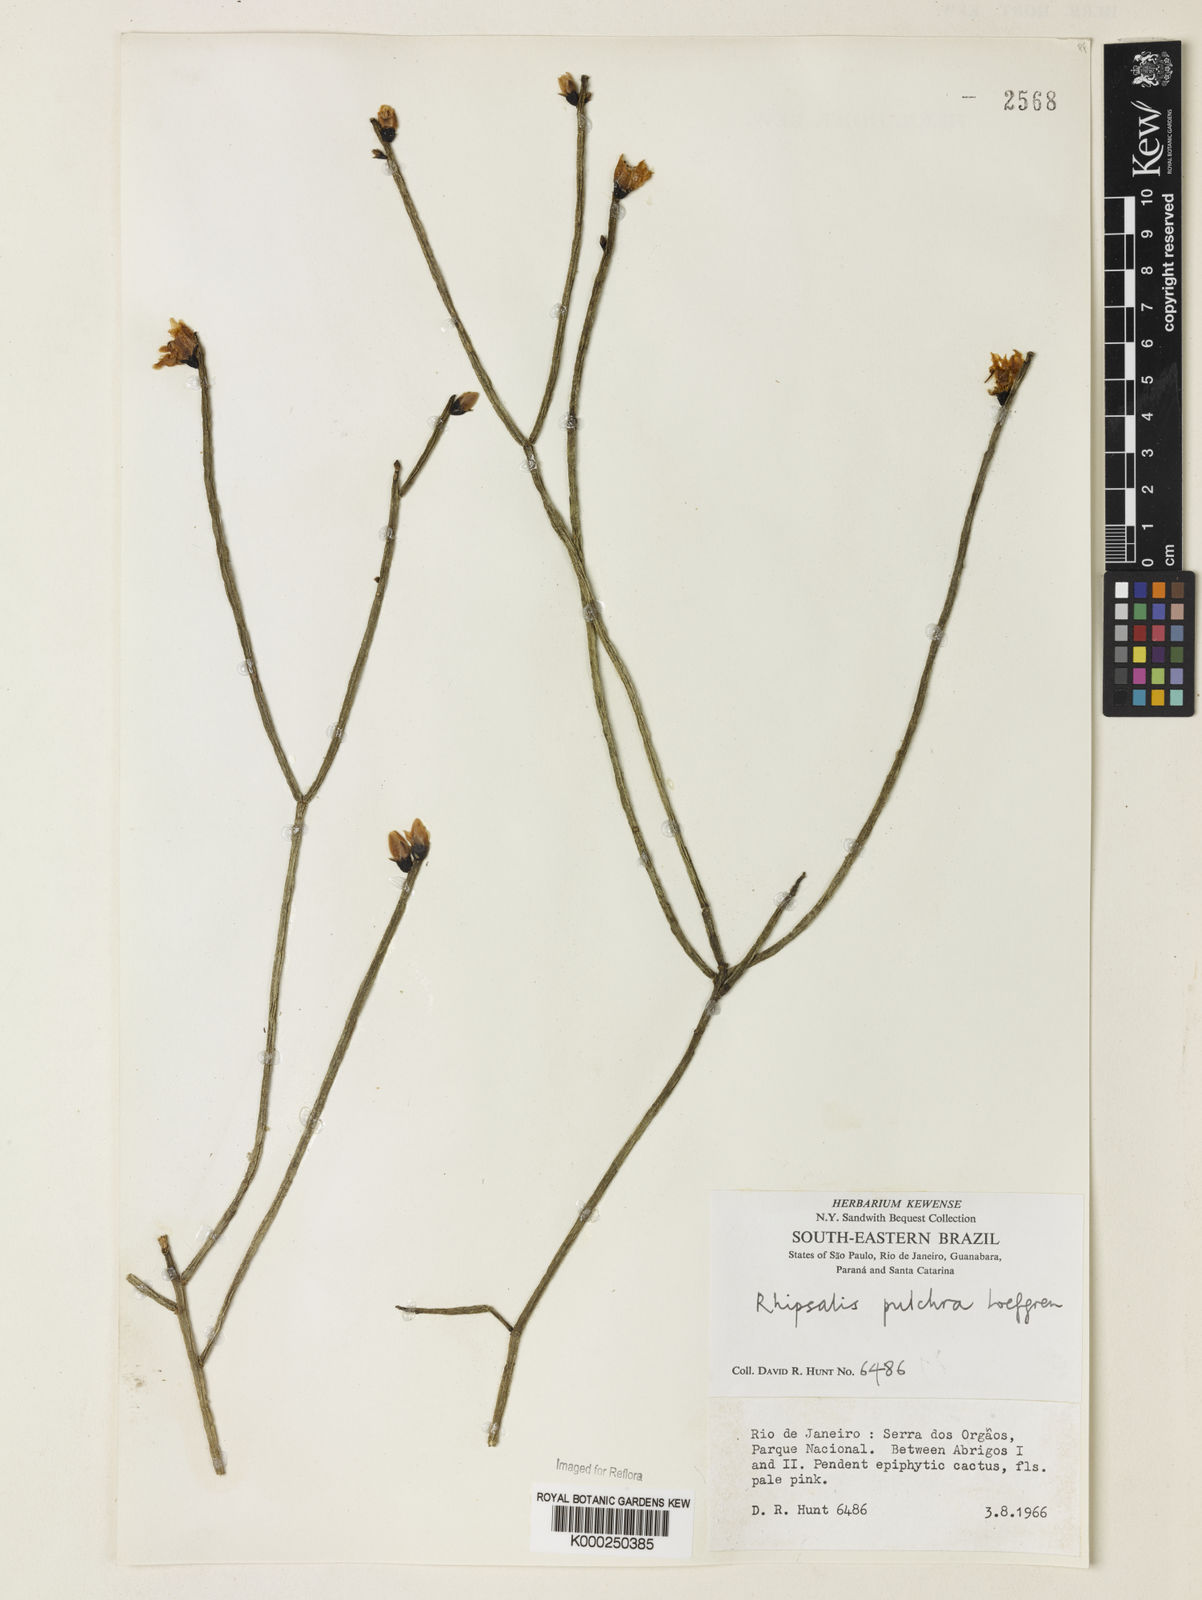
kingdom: Plantae
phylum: Tracheophyta
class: Magnoliopsida
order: Caryophyllales
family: Cactaceae
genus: Rhipsalis
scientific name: Rhipsalis
